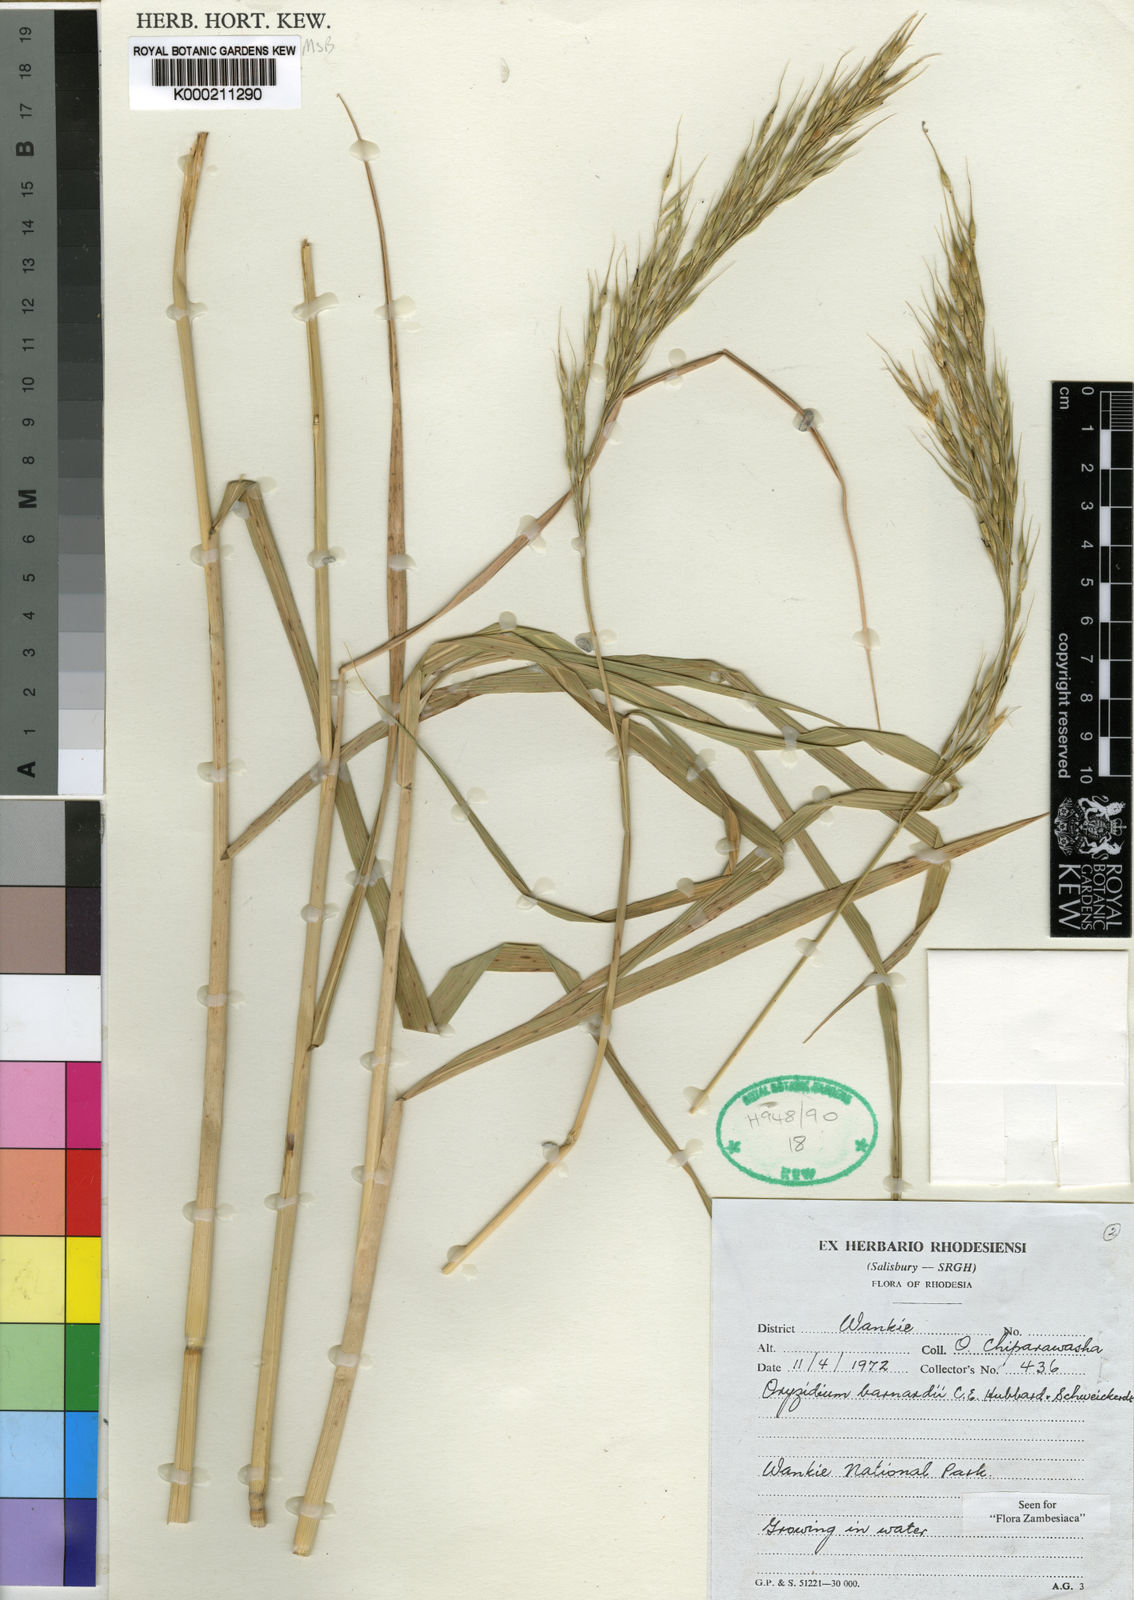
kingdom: Plantae
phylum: Tracheophyta
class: Liliopsida
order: Poales
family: Poaceae
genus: Oryzidium
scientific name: Oryzidium barnardii
